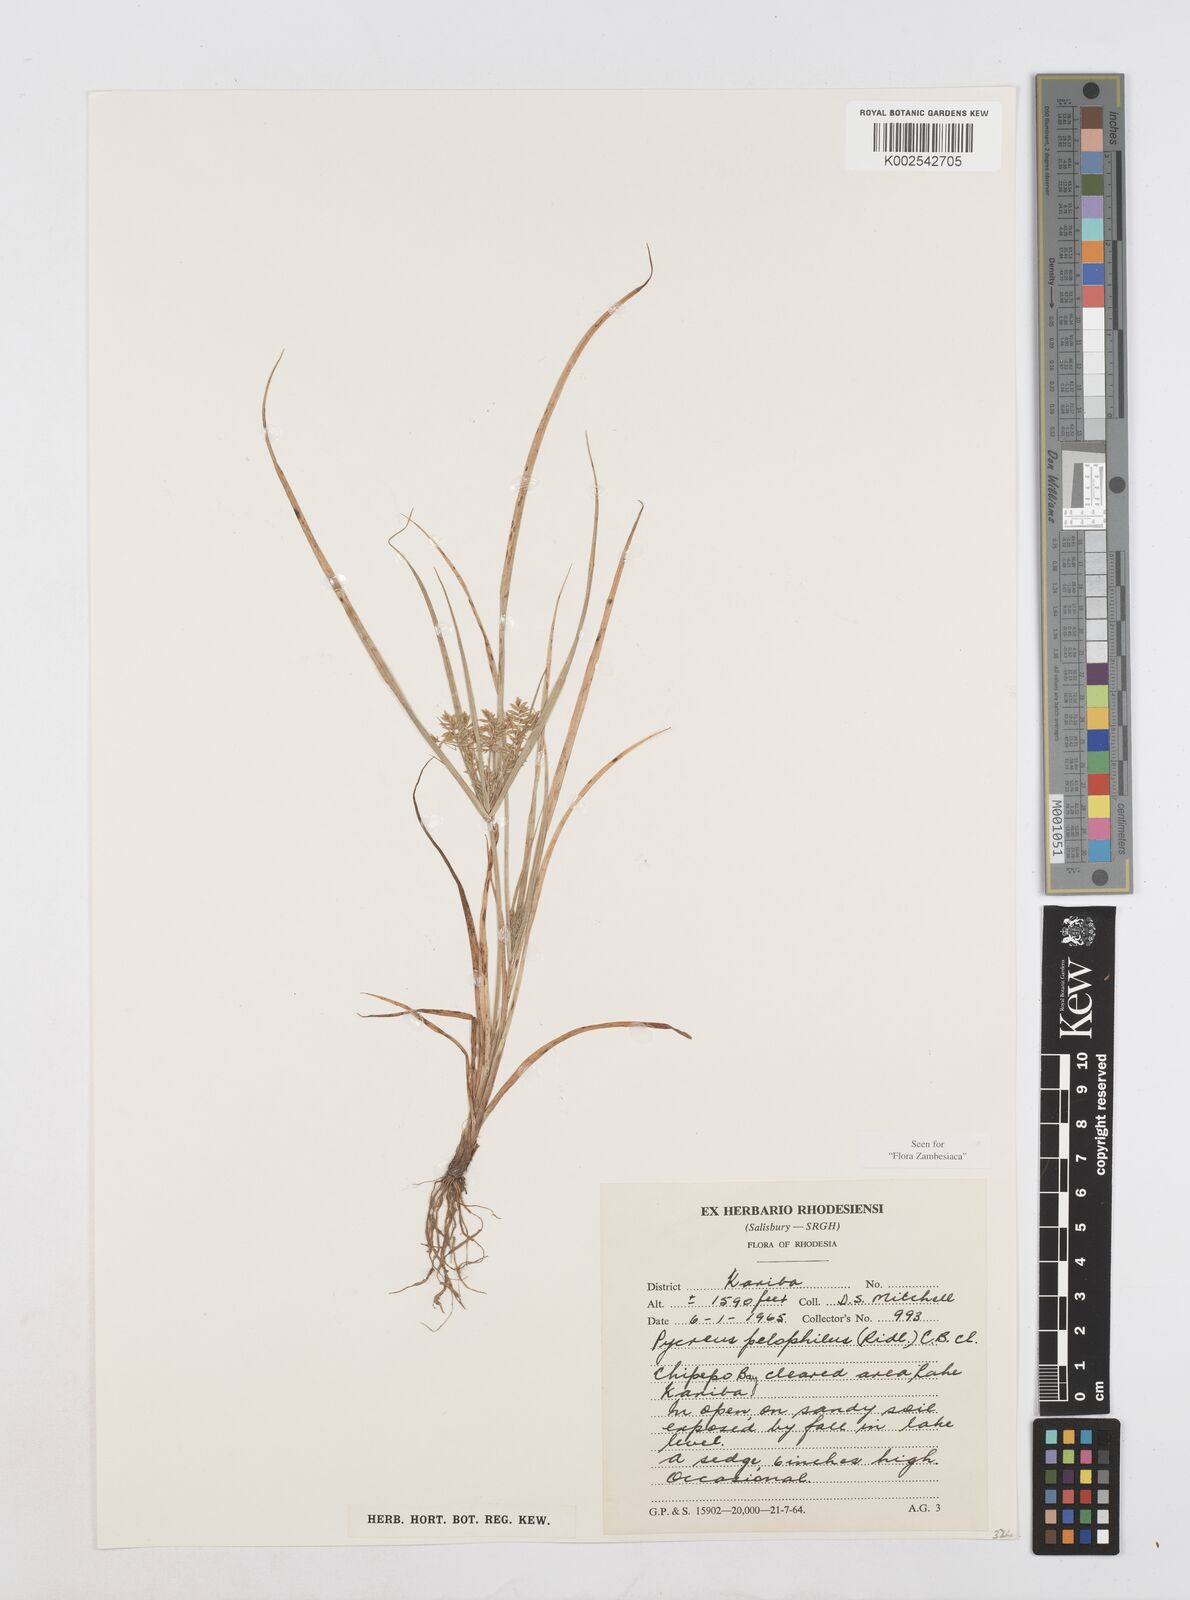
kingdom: Plantae
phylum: Tracheophyta
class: Liliopsida
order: Poales
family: Cyperaceae
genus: Cyperus
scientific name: Cyperus pelophilus
